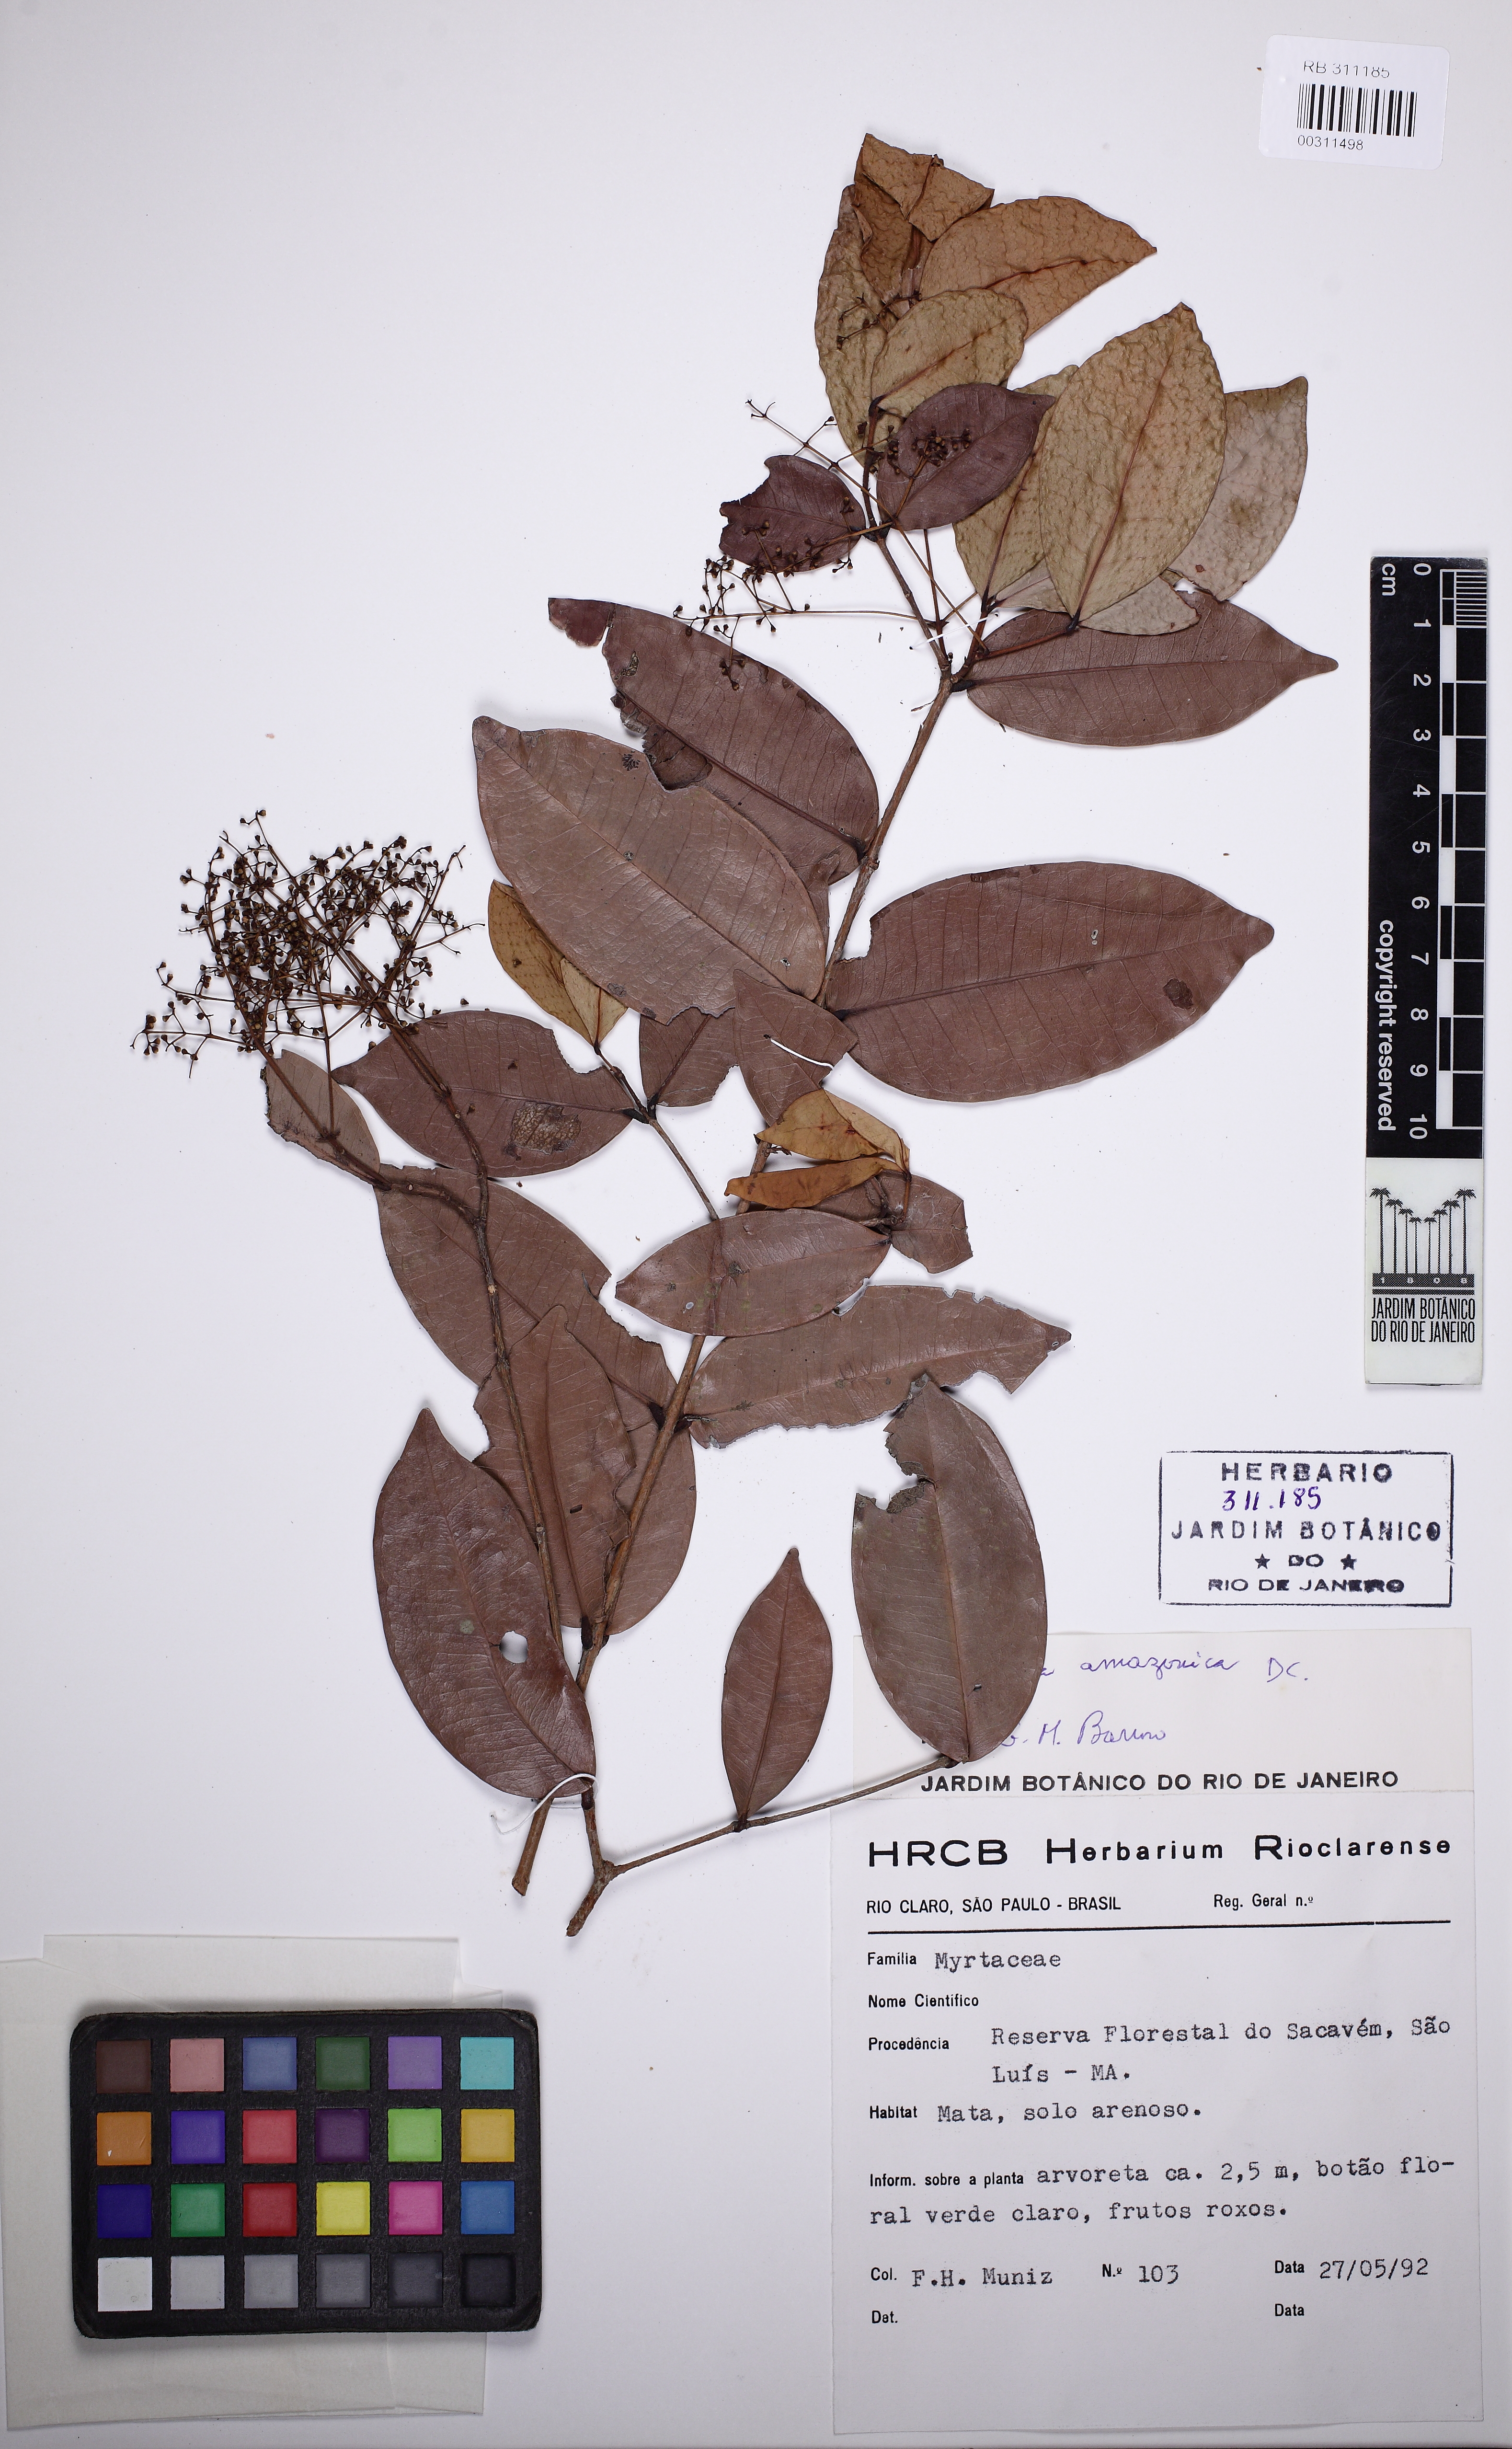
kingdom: Plantae
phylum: Tracheophyta
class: Magnoliopsida
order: Myrtales
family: Myrtaceae
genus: Myrcia
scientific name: Myrcia amazonica
